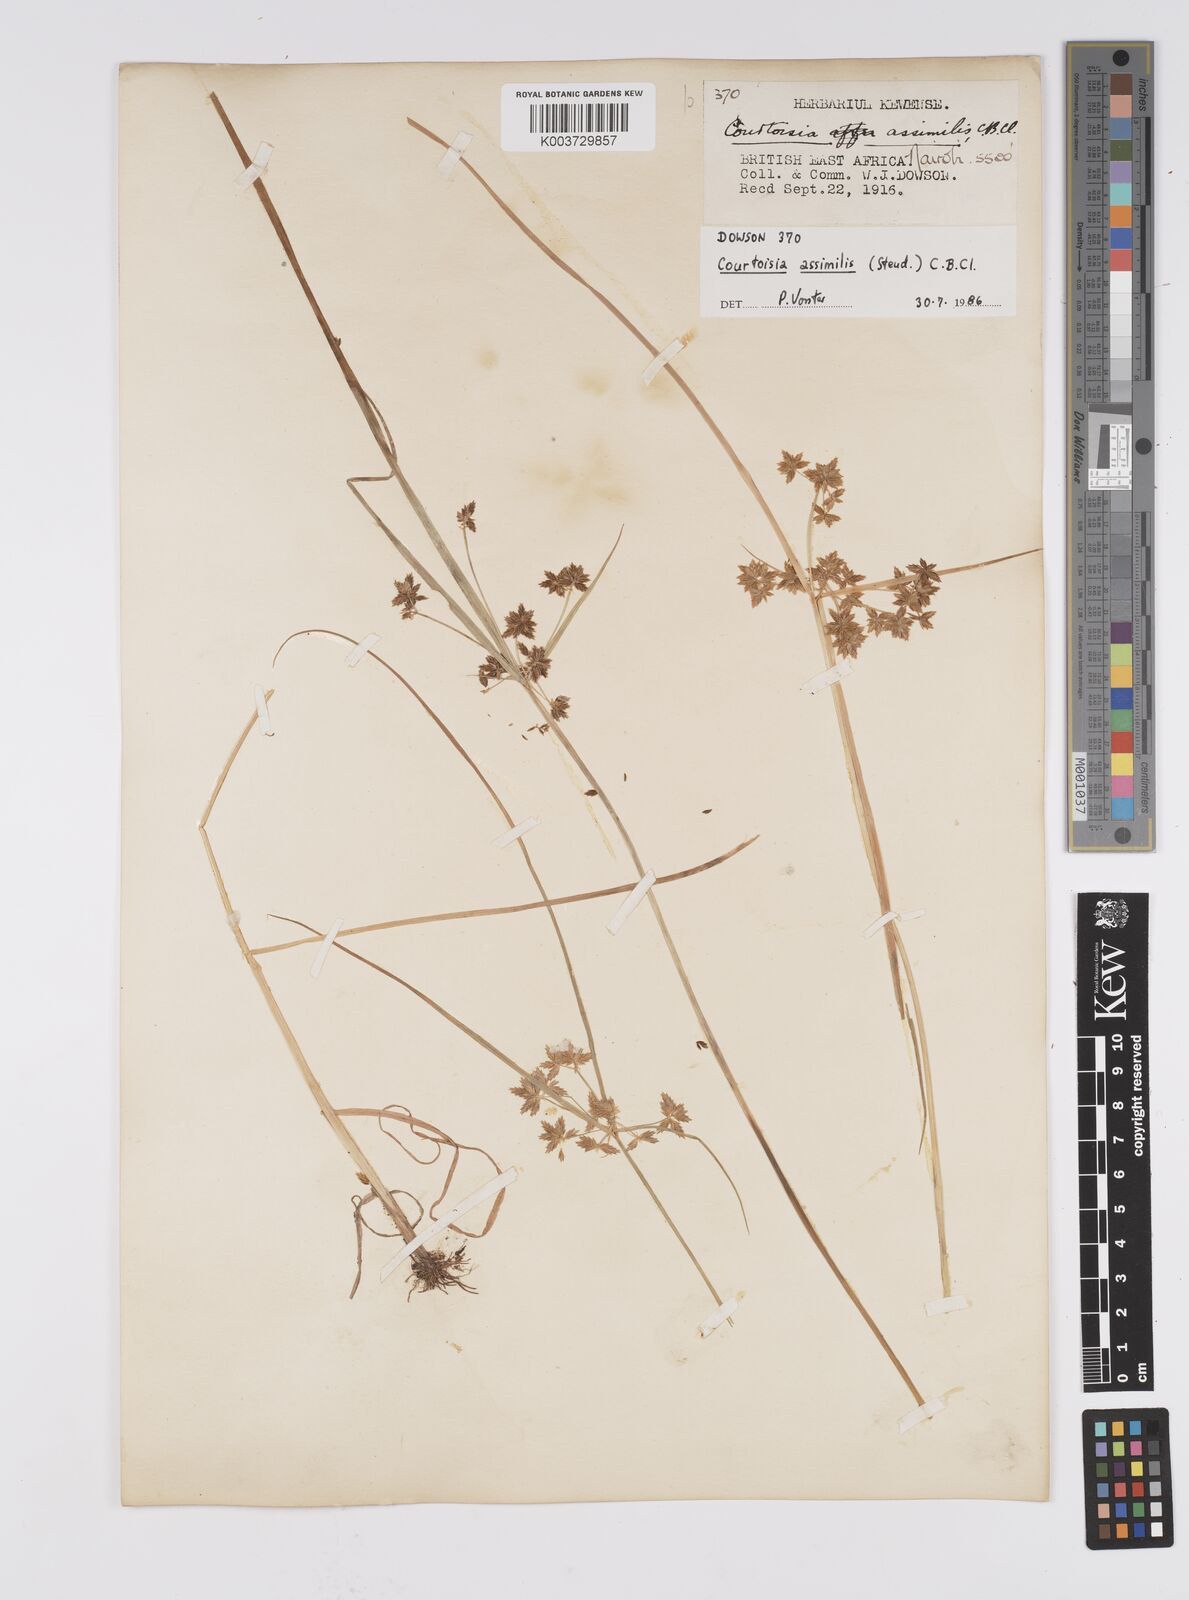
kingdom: Plantae
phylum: Tracheophyta
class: Liliopsida
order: Poales
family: Cyperaceae
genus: Cyperus
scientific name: Cyperus assimilis
